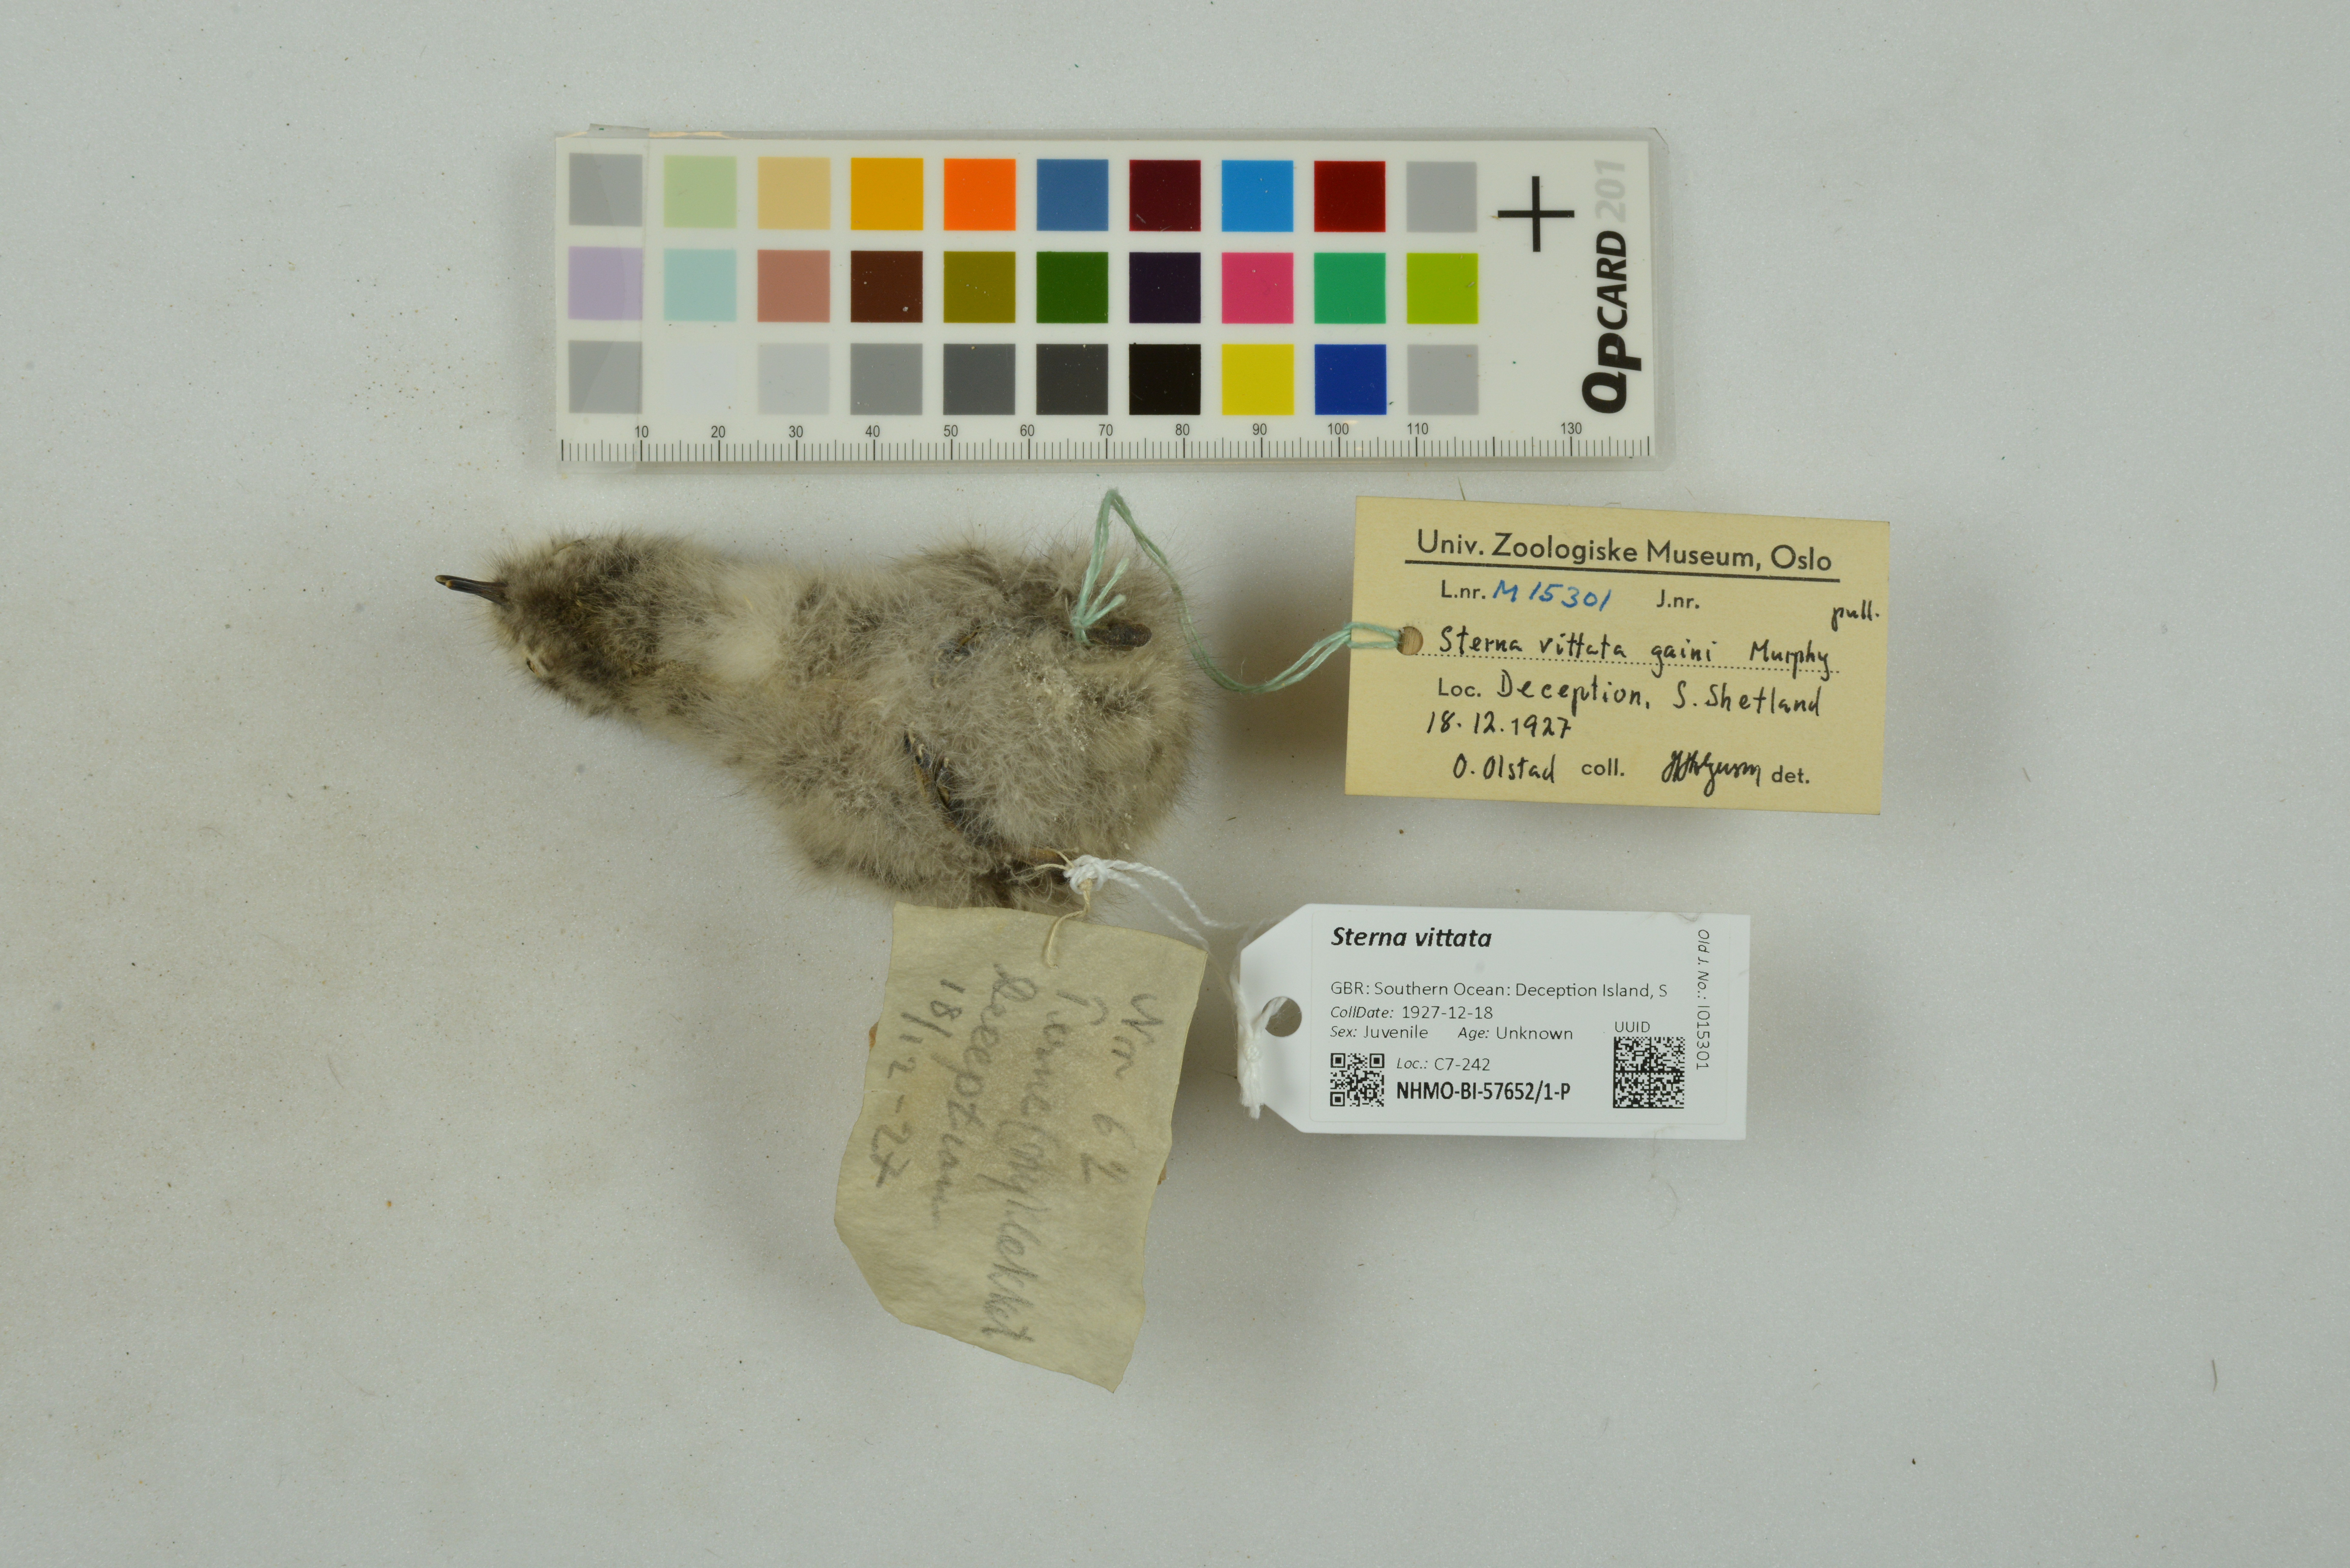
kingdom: Animalia
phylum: Chordata
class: Aves
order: Charadriiformes
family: Laridae
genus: Sterna
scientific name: Sterna vittata
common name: Antarctic tern
